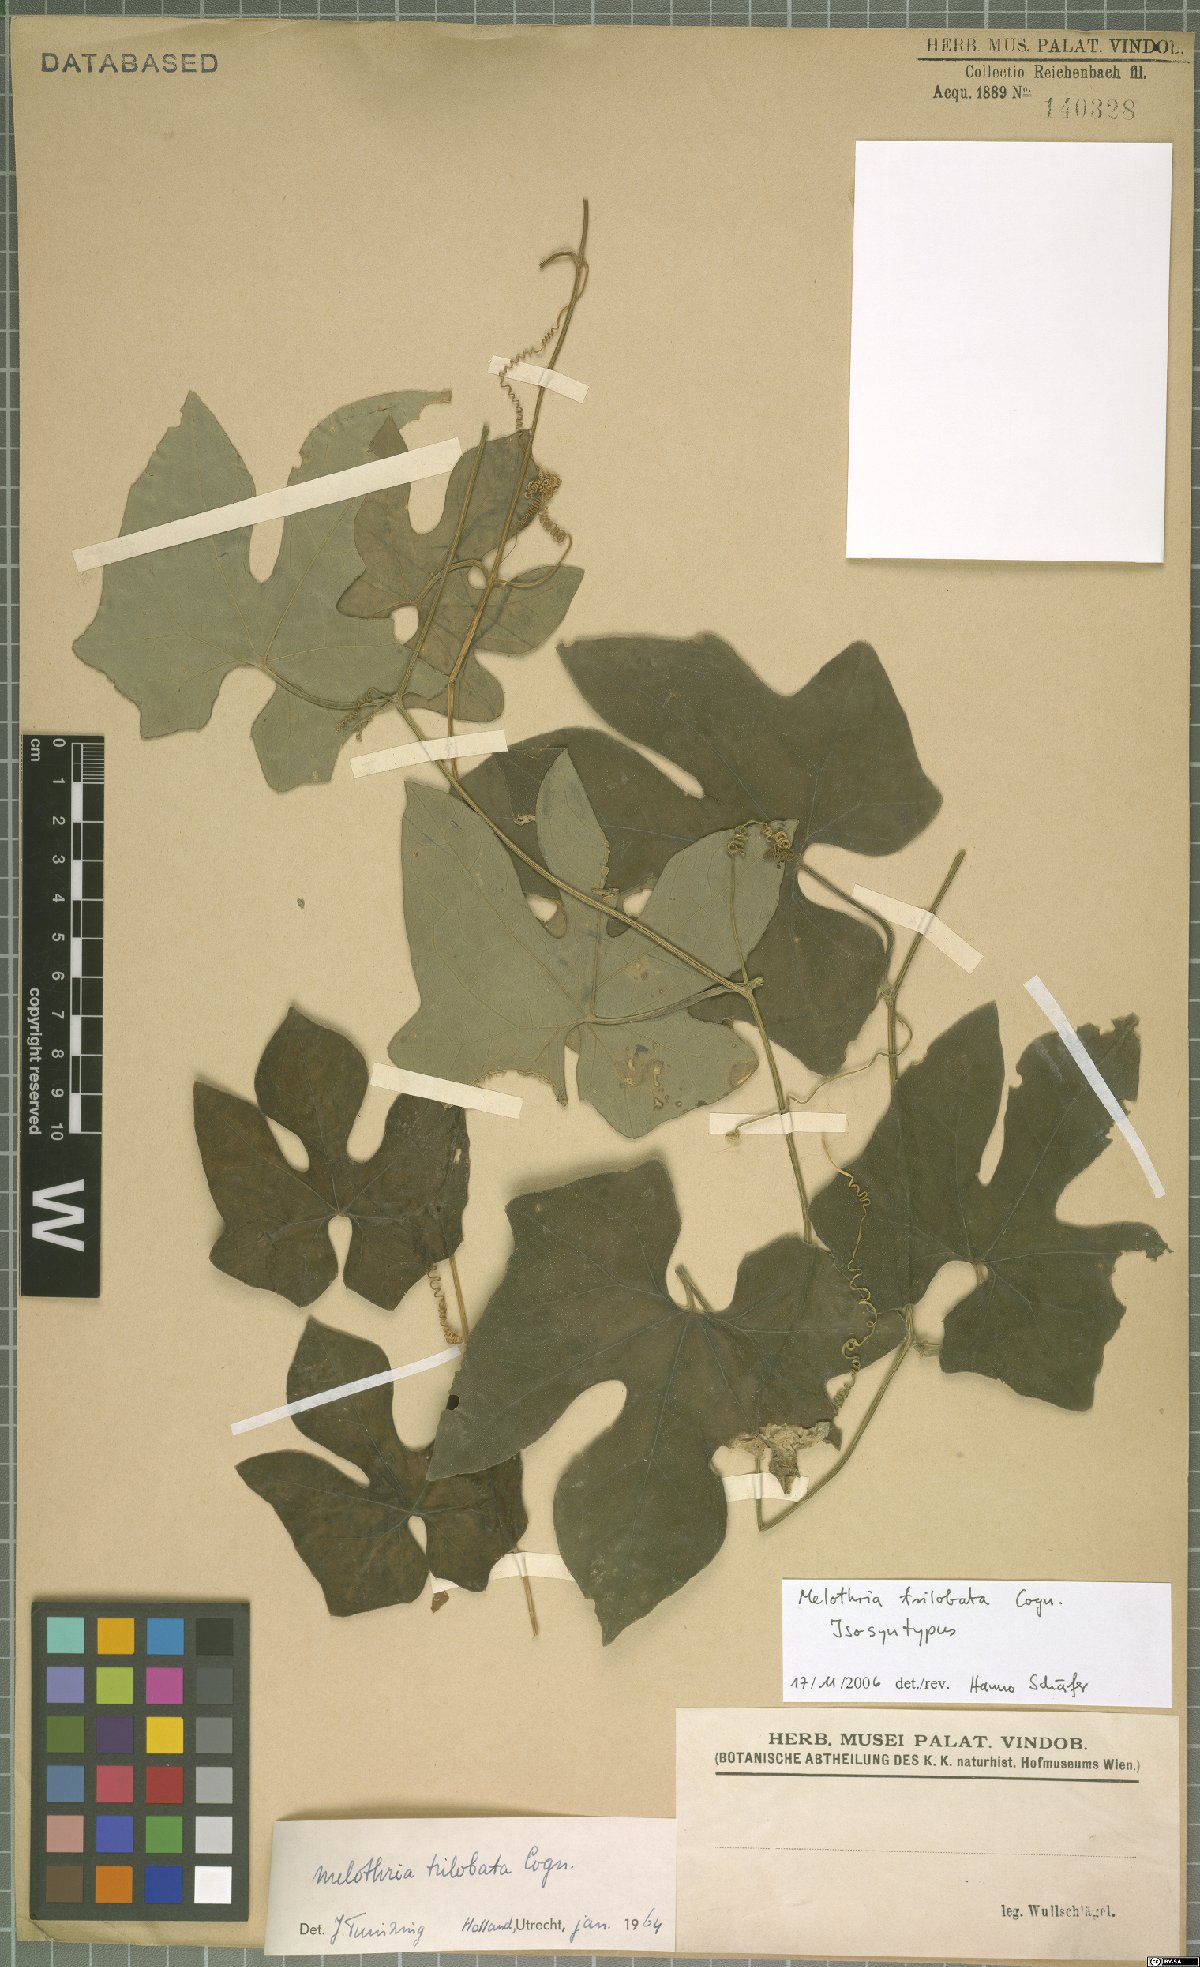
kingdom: Plantae
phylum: Tracheophyta
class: Magnoliopsida
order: Cucurbitales
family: Cucurbitaceae
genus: Melothria
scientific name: Melothria trilobata
